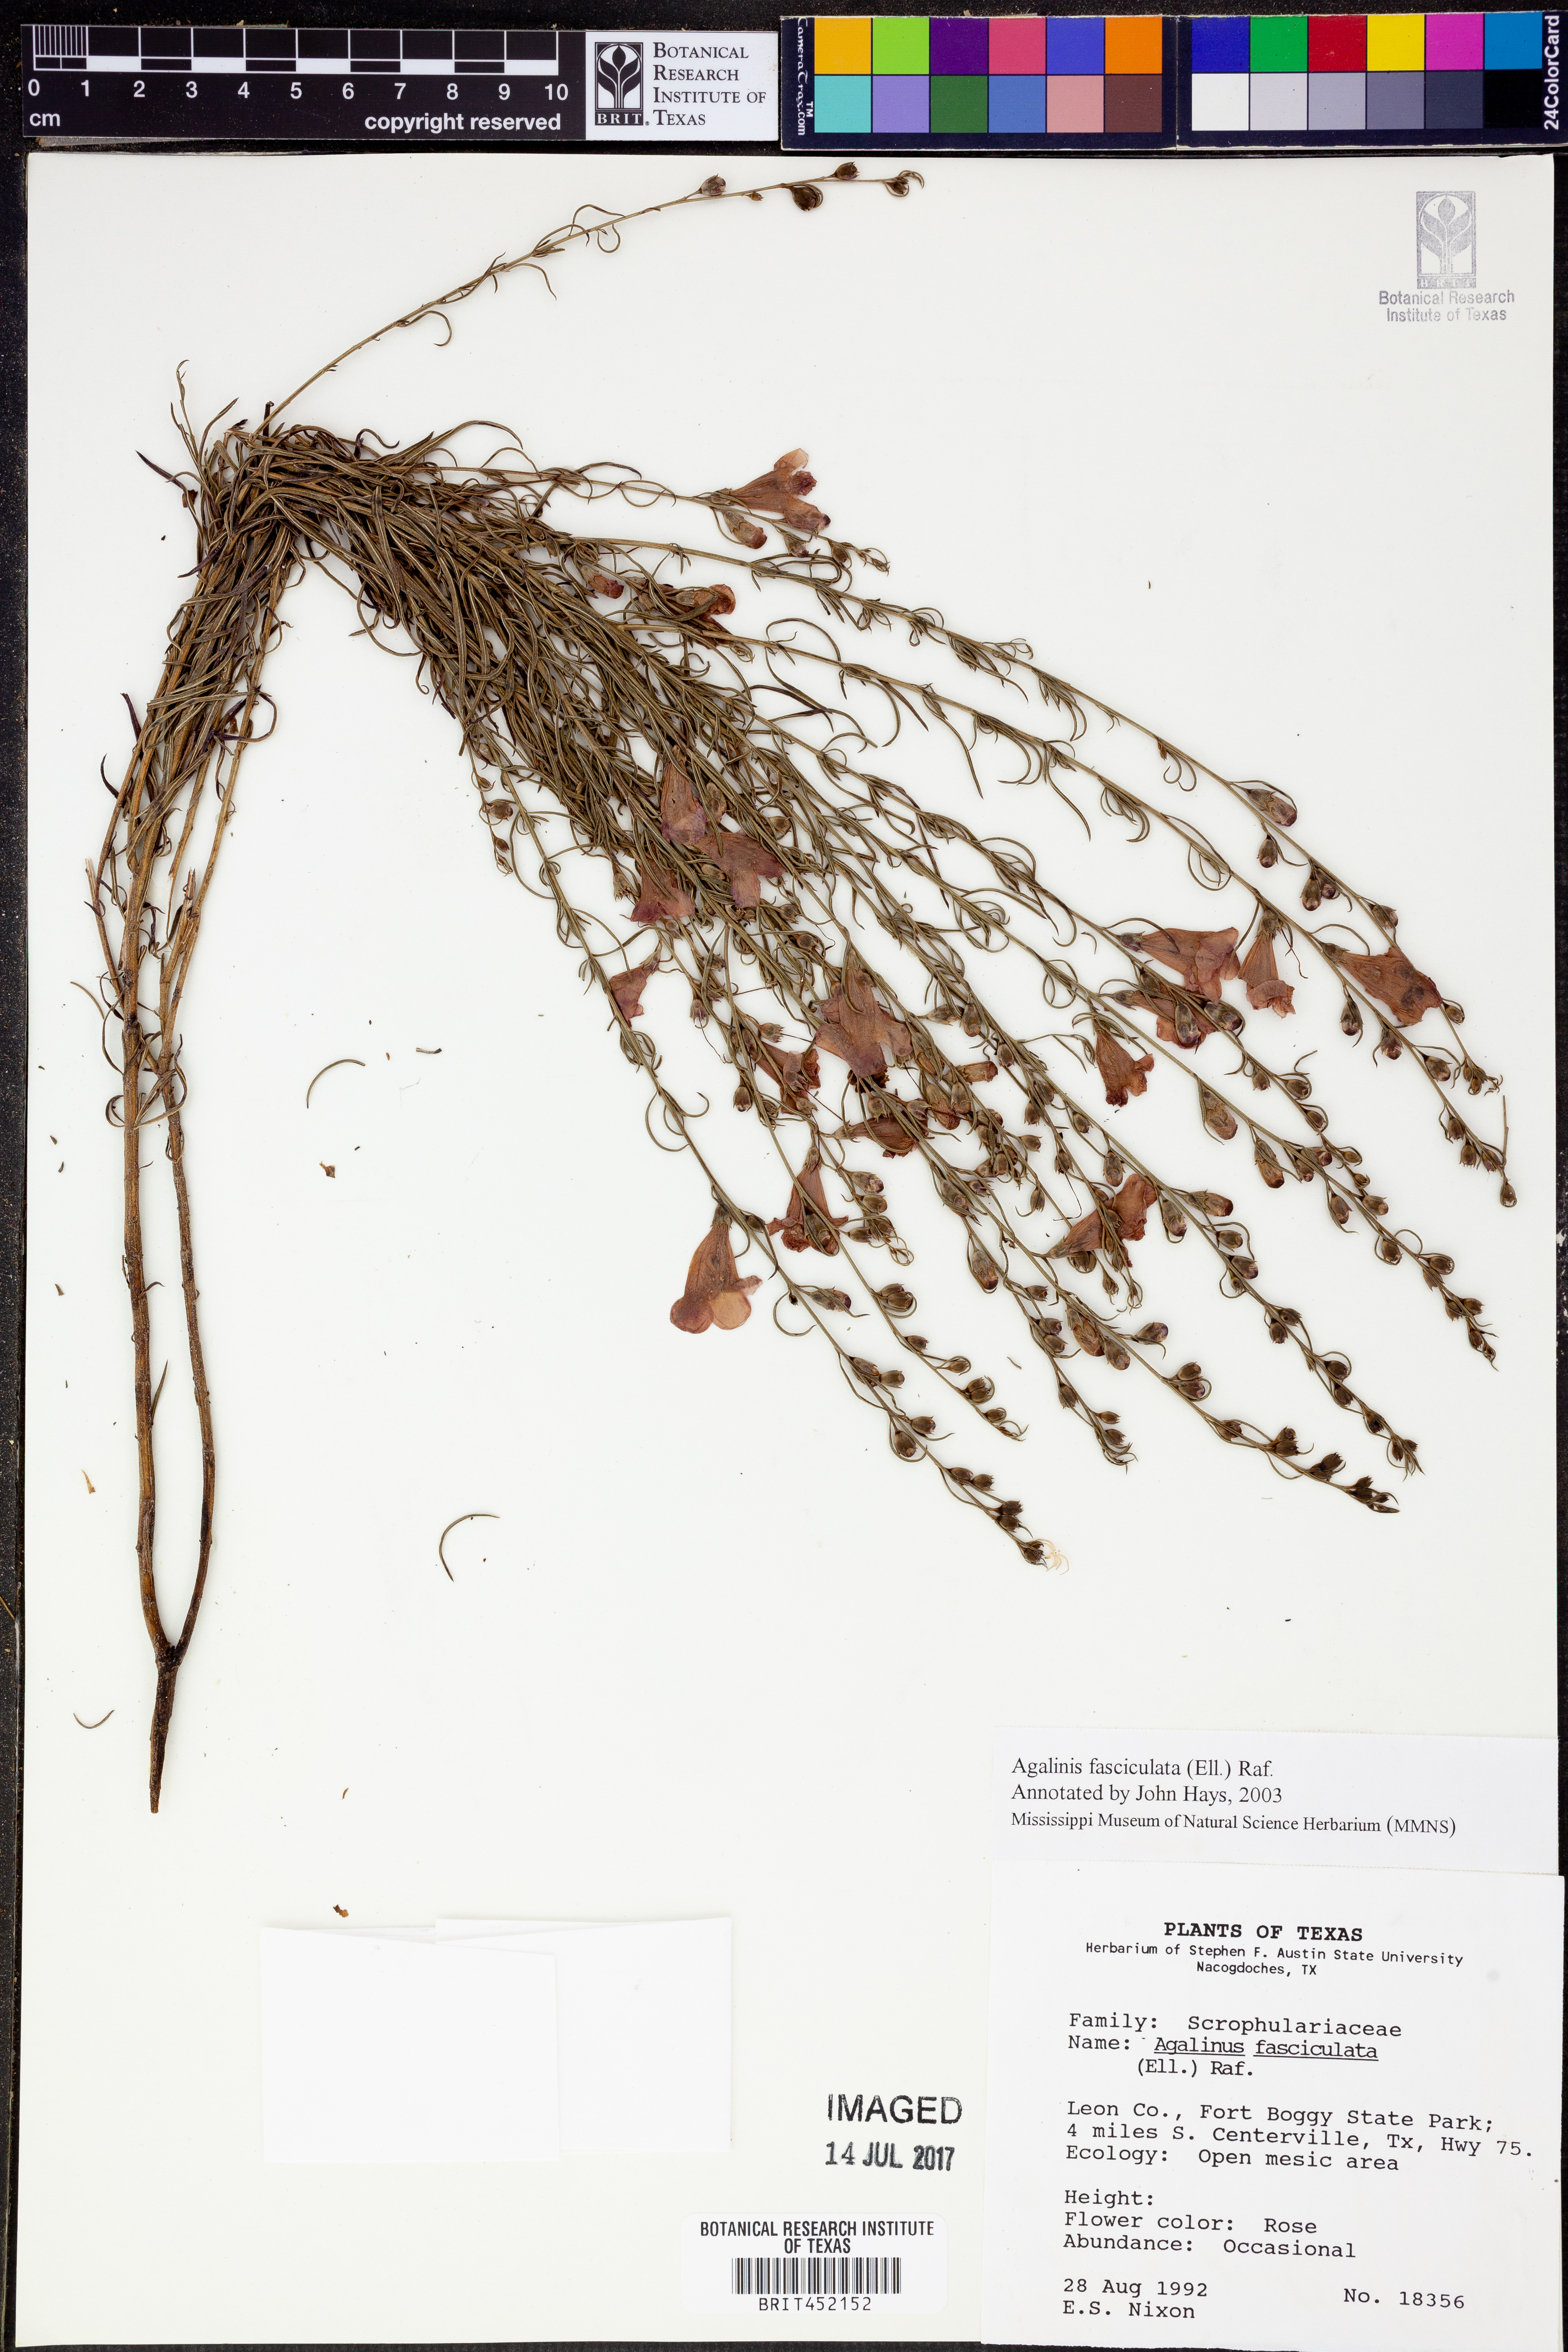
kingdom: Plantae
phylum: Tracheophyta
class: Magnoliopsida
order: Lamiales
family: Orobanchaceae
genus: Agalinis
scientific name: Agalinis fasciculata
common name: Beach false foxglove
